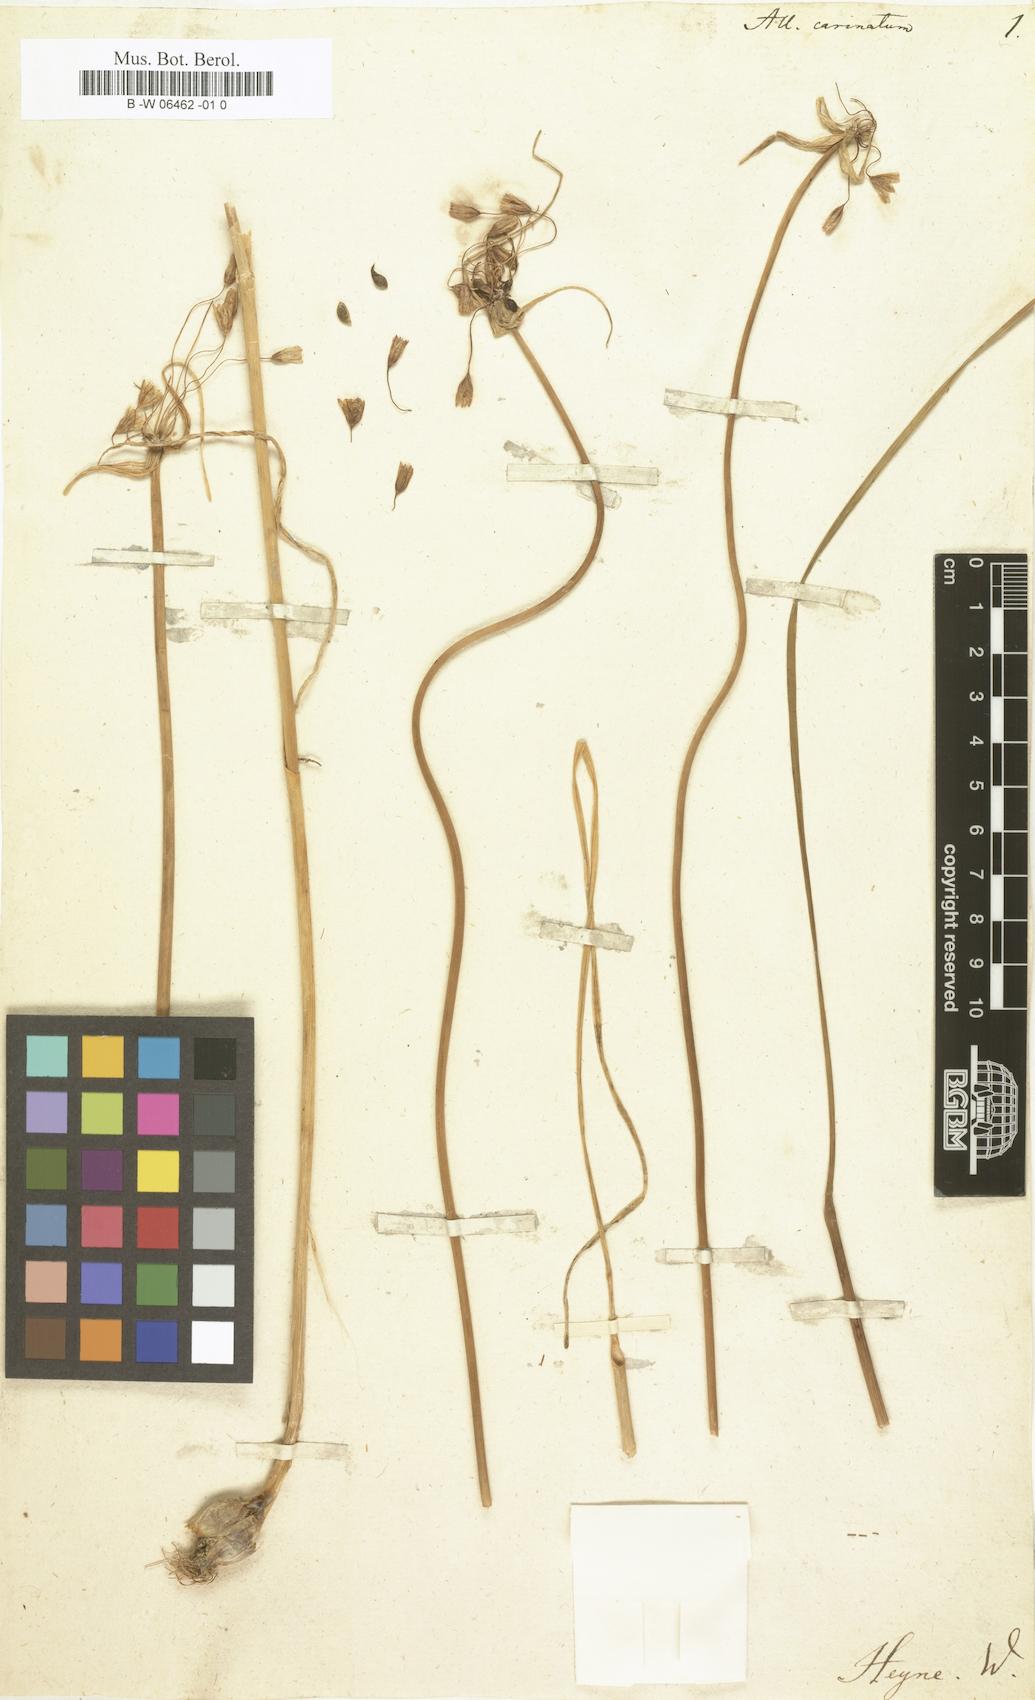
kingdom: Plantae
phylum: Tracheophyta
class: Liliopsida
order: Asparagales
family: Amaryllidaceae
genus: Allium
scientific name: Allium carinatum
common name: Keeled garlic
